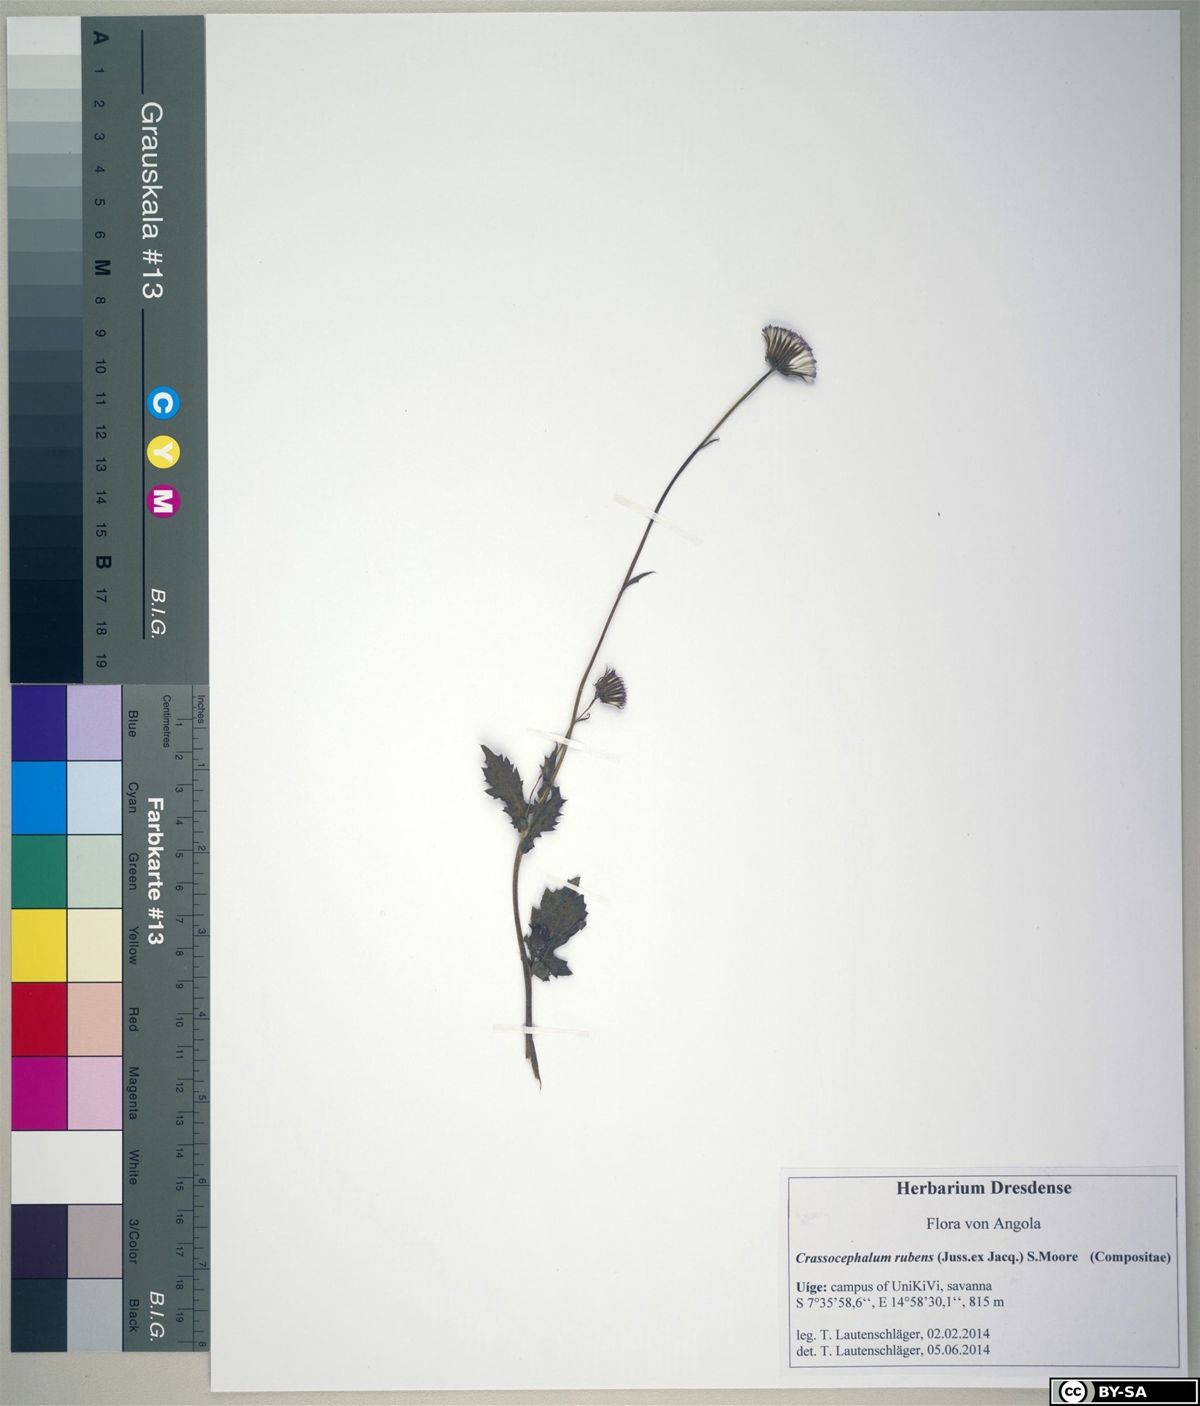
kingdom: Plantae
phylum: Tracheophyta
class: Magnoliopsida
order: Asterales
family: Asteraceae
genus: Crassocephalum
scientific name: Crassocephalum rubens
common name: Yoruban bologi
